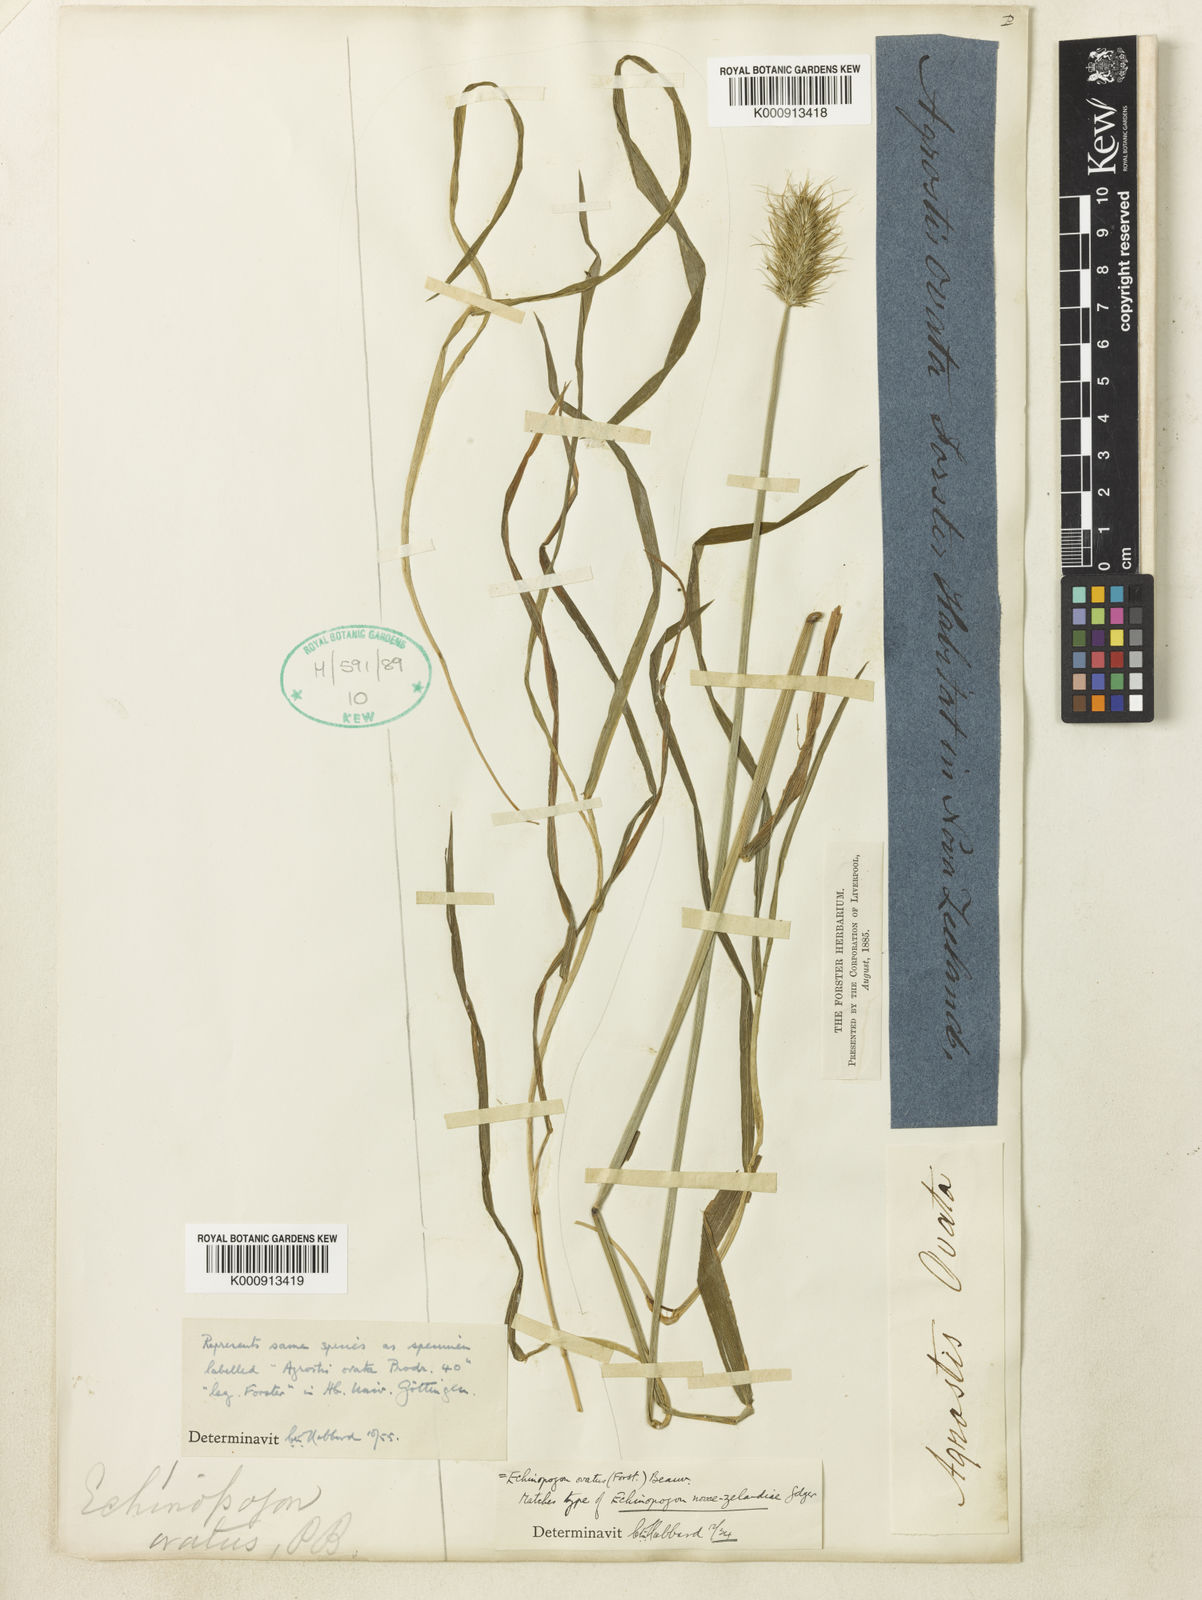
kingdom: Plantae
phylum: Tracheophyta
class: Liliopsida
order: Poales
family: Poaceae
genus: Echinopogon
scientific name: Echinopogon ovatus
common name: Hedgehog-grass
